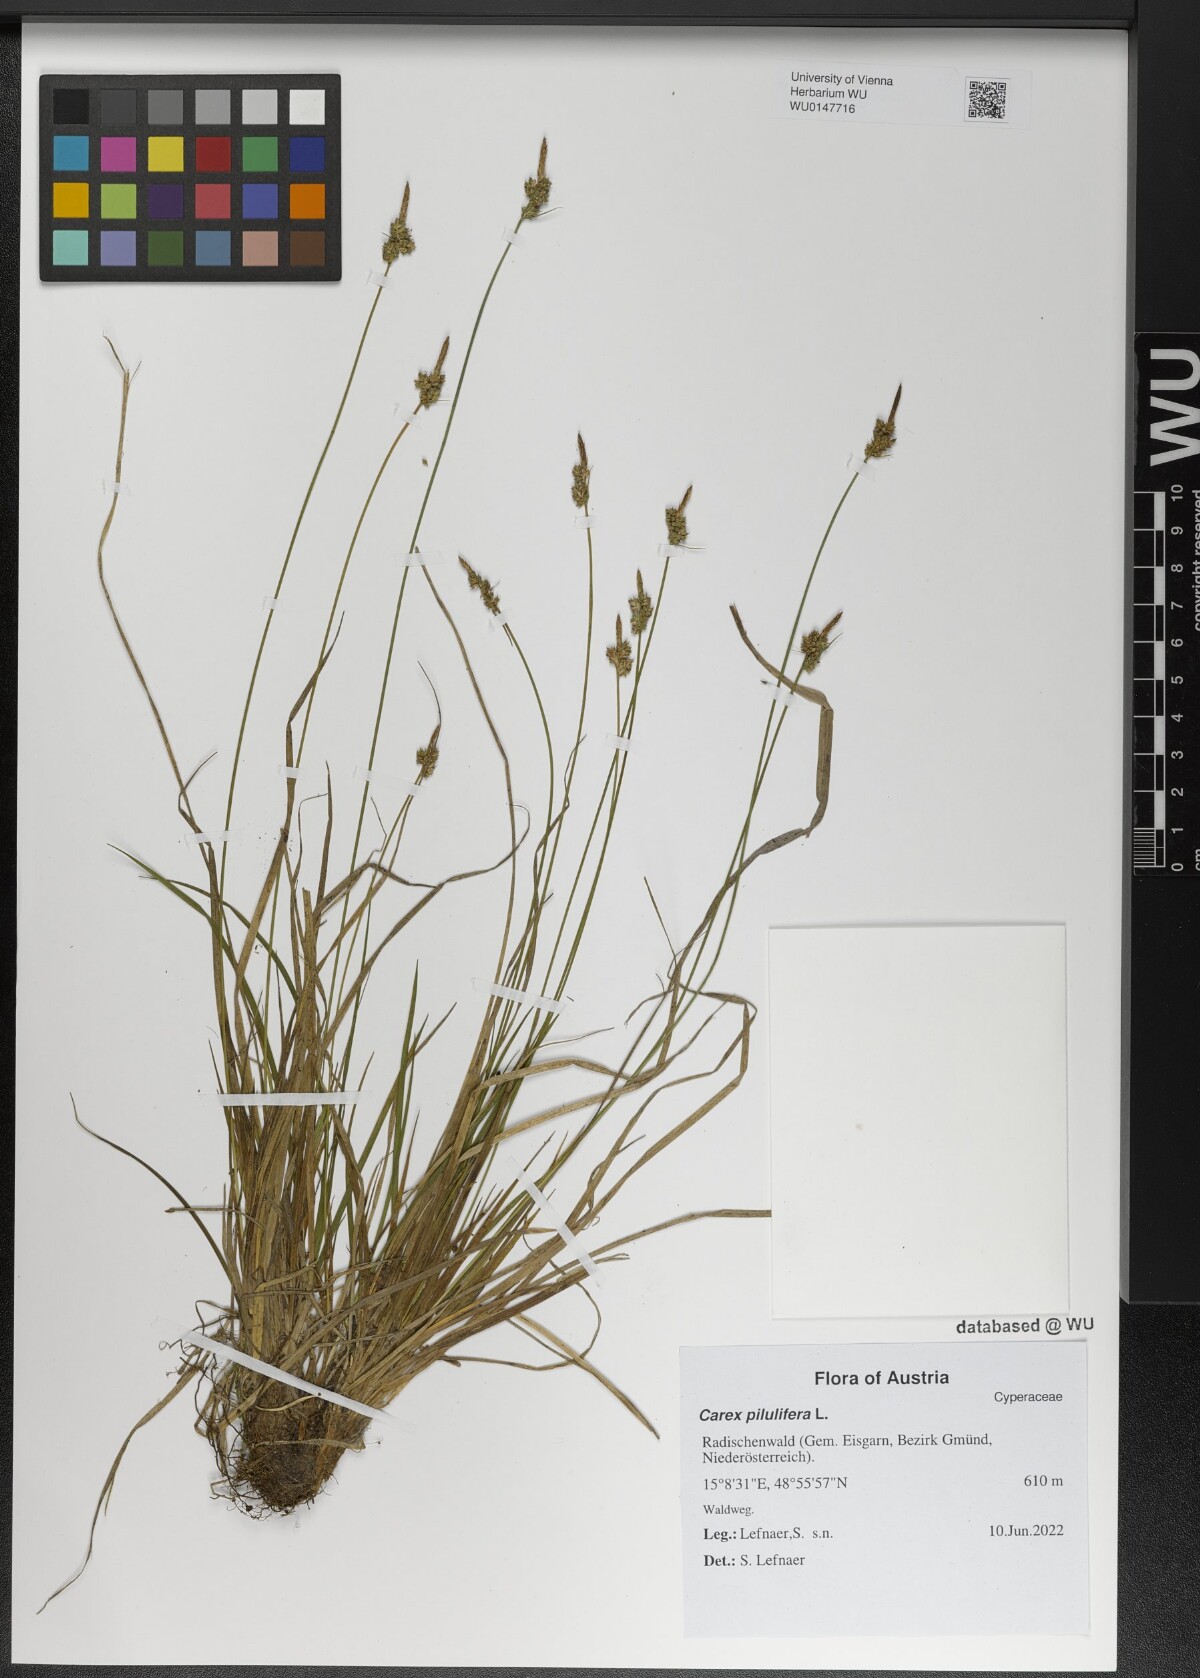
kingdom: Plantae
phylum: Tracheophyta
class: Liliopsida
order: Poales
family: Cyperaceae
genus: Carex
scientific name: Carex pilulifera
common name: Pill sedge
